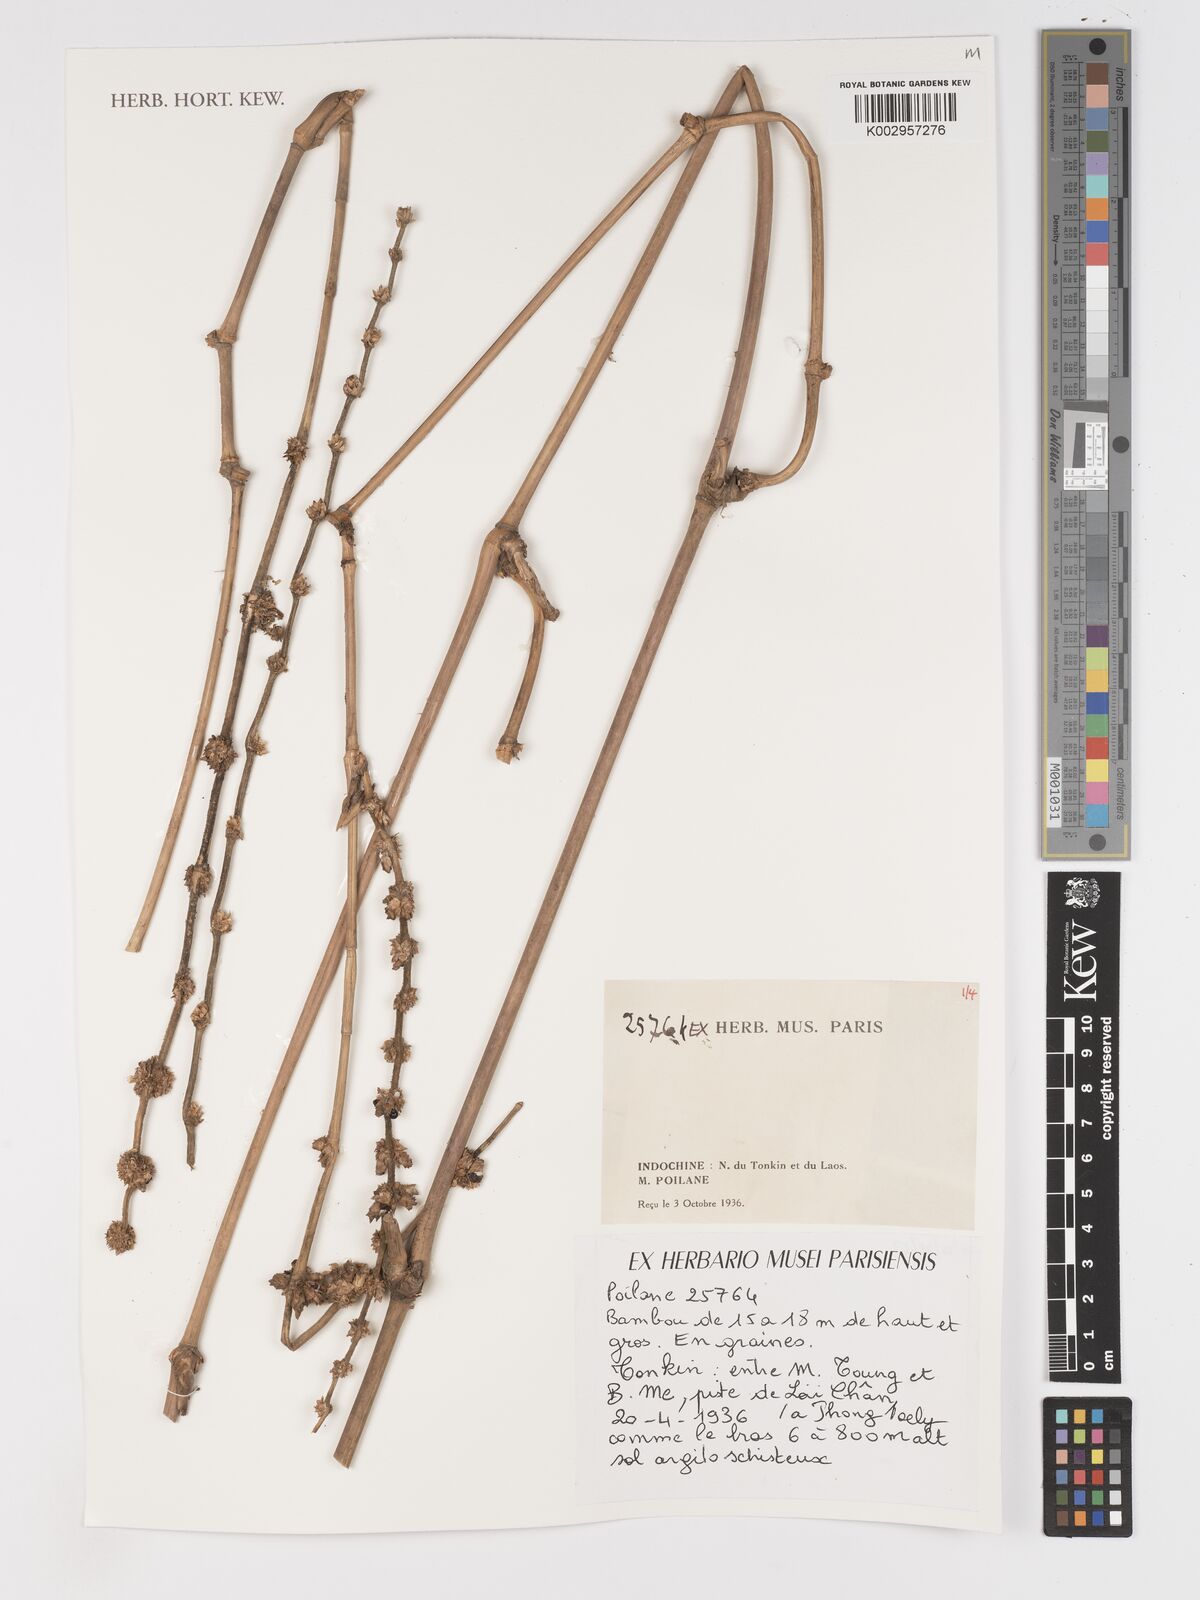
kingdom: Plantae
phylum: Tracheophyta
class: Liliopsida
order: Poales
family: Poaceae
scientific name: Poaceae
